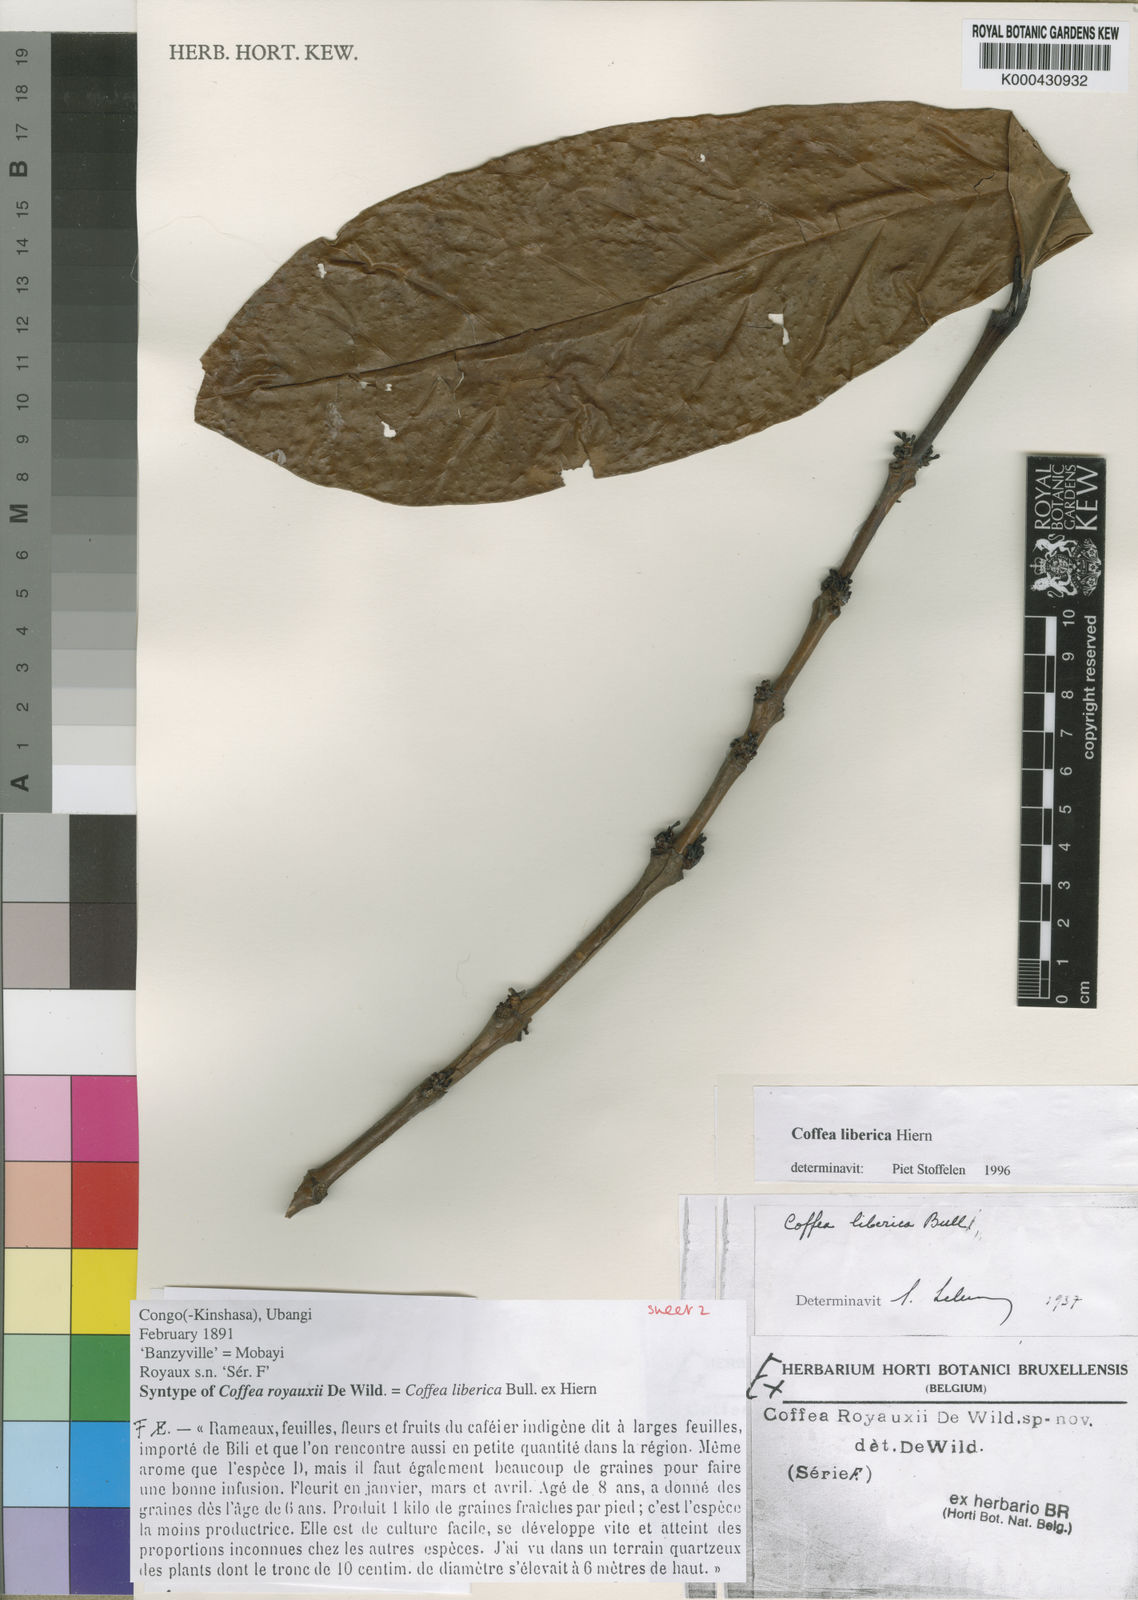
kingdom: Plantae
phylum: Tracheophyta
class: Magnoliopsida
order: Gentianales
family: Rubiaceae
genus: Coffea
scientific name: Coffea
